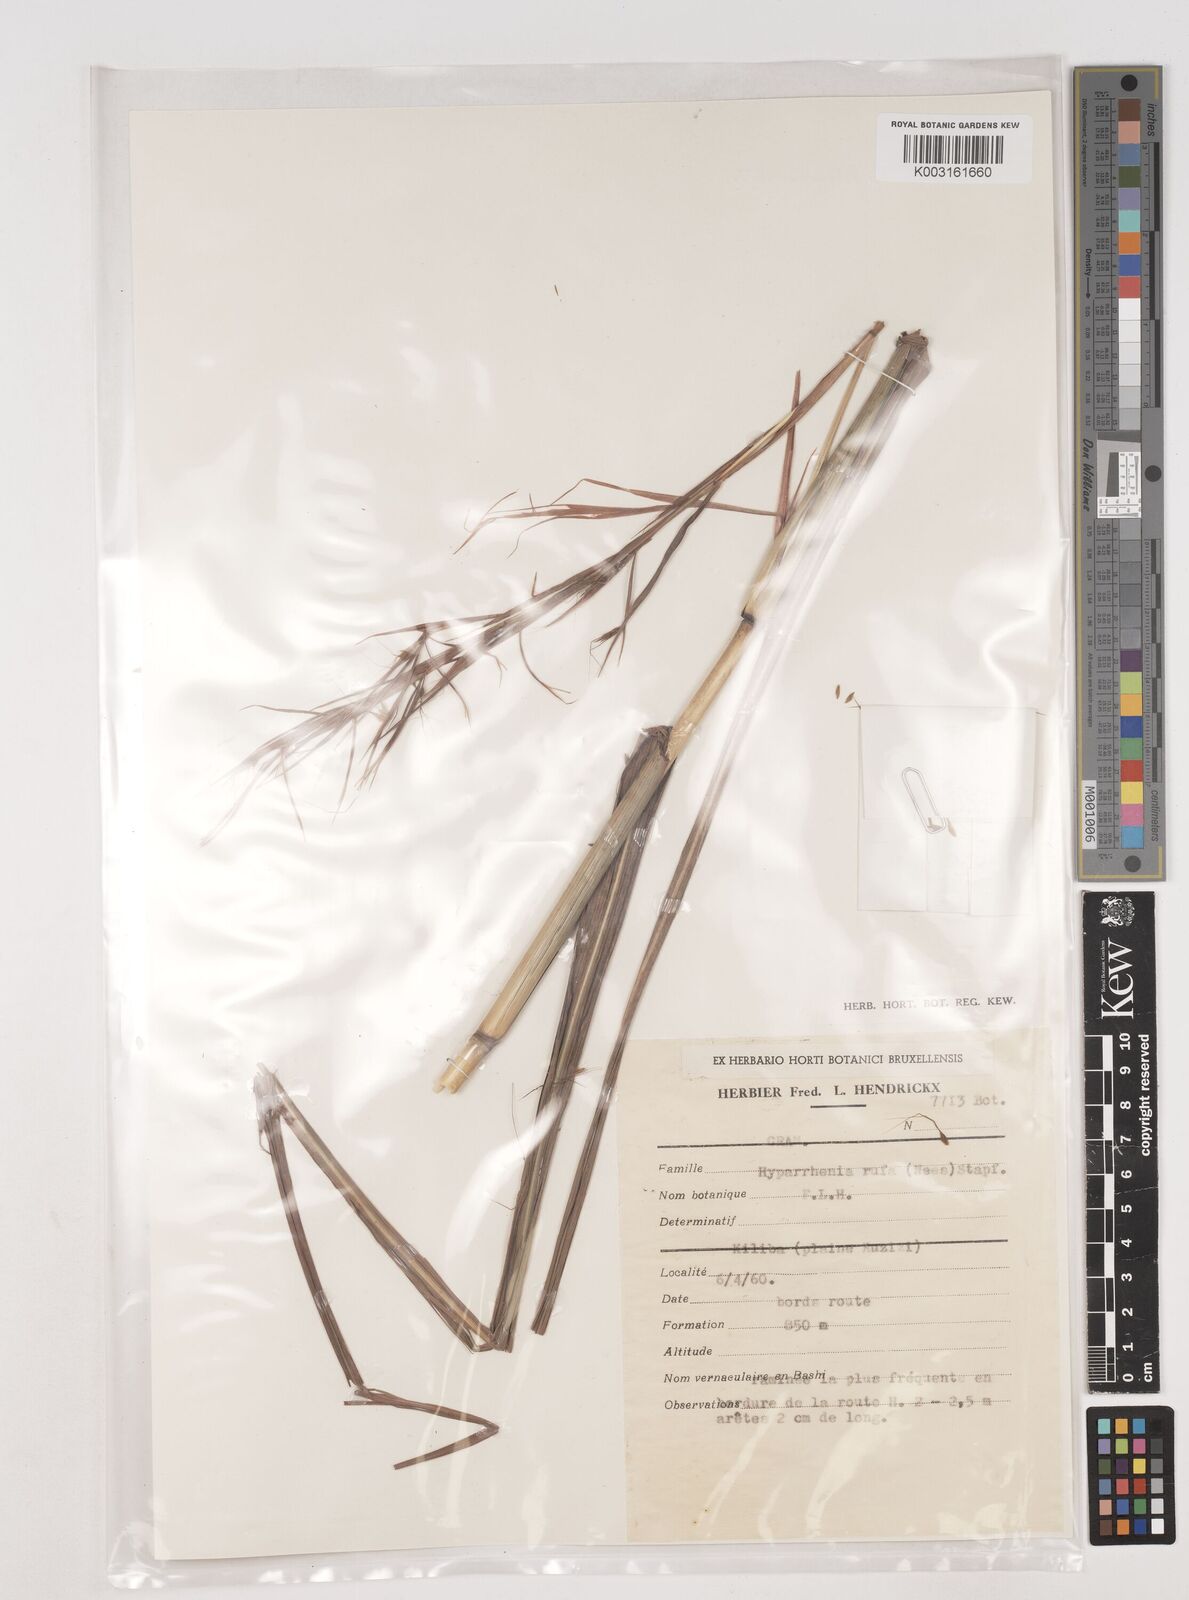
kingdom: Plantae
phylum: Tracheophyta
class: Liliopsida
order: Poales
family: Poaceae
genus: Hyparrhenia
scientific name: Hyparrhenia rufa
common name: Jaraguagrass
